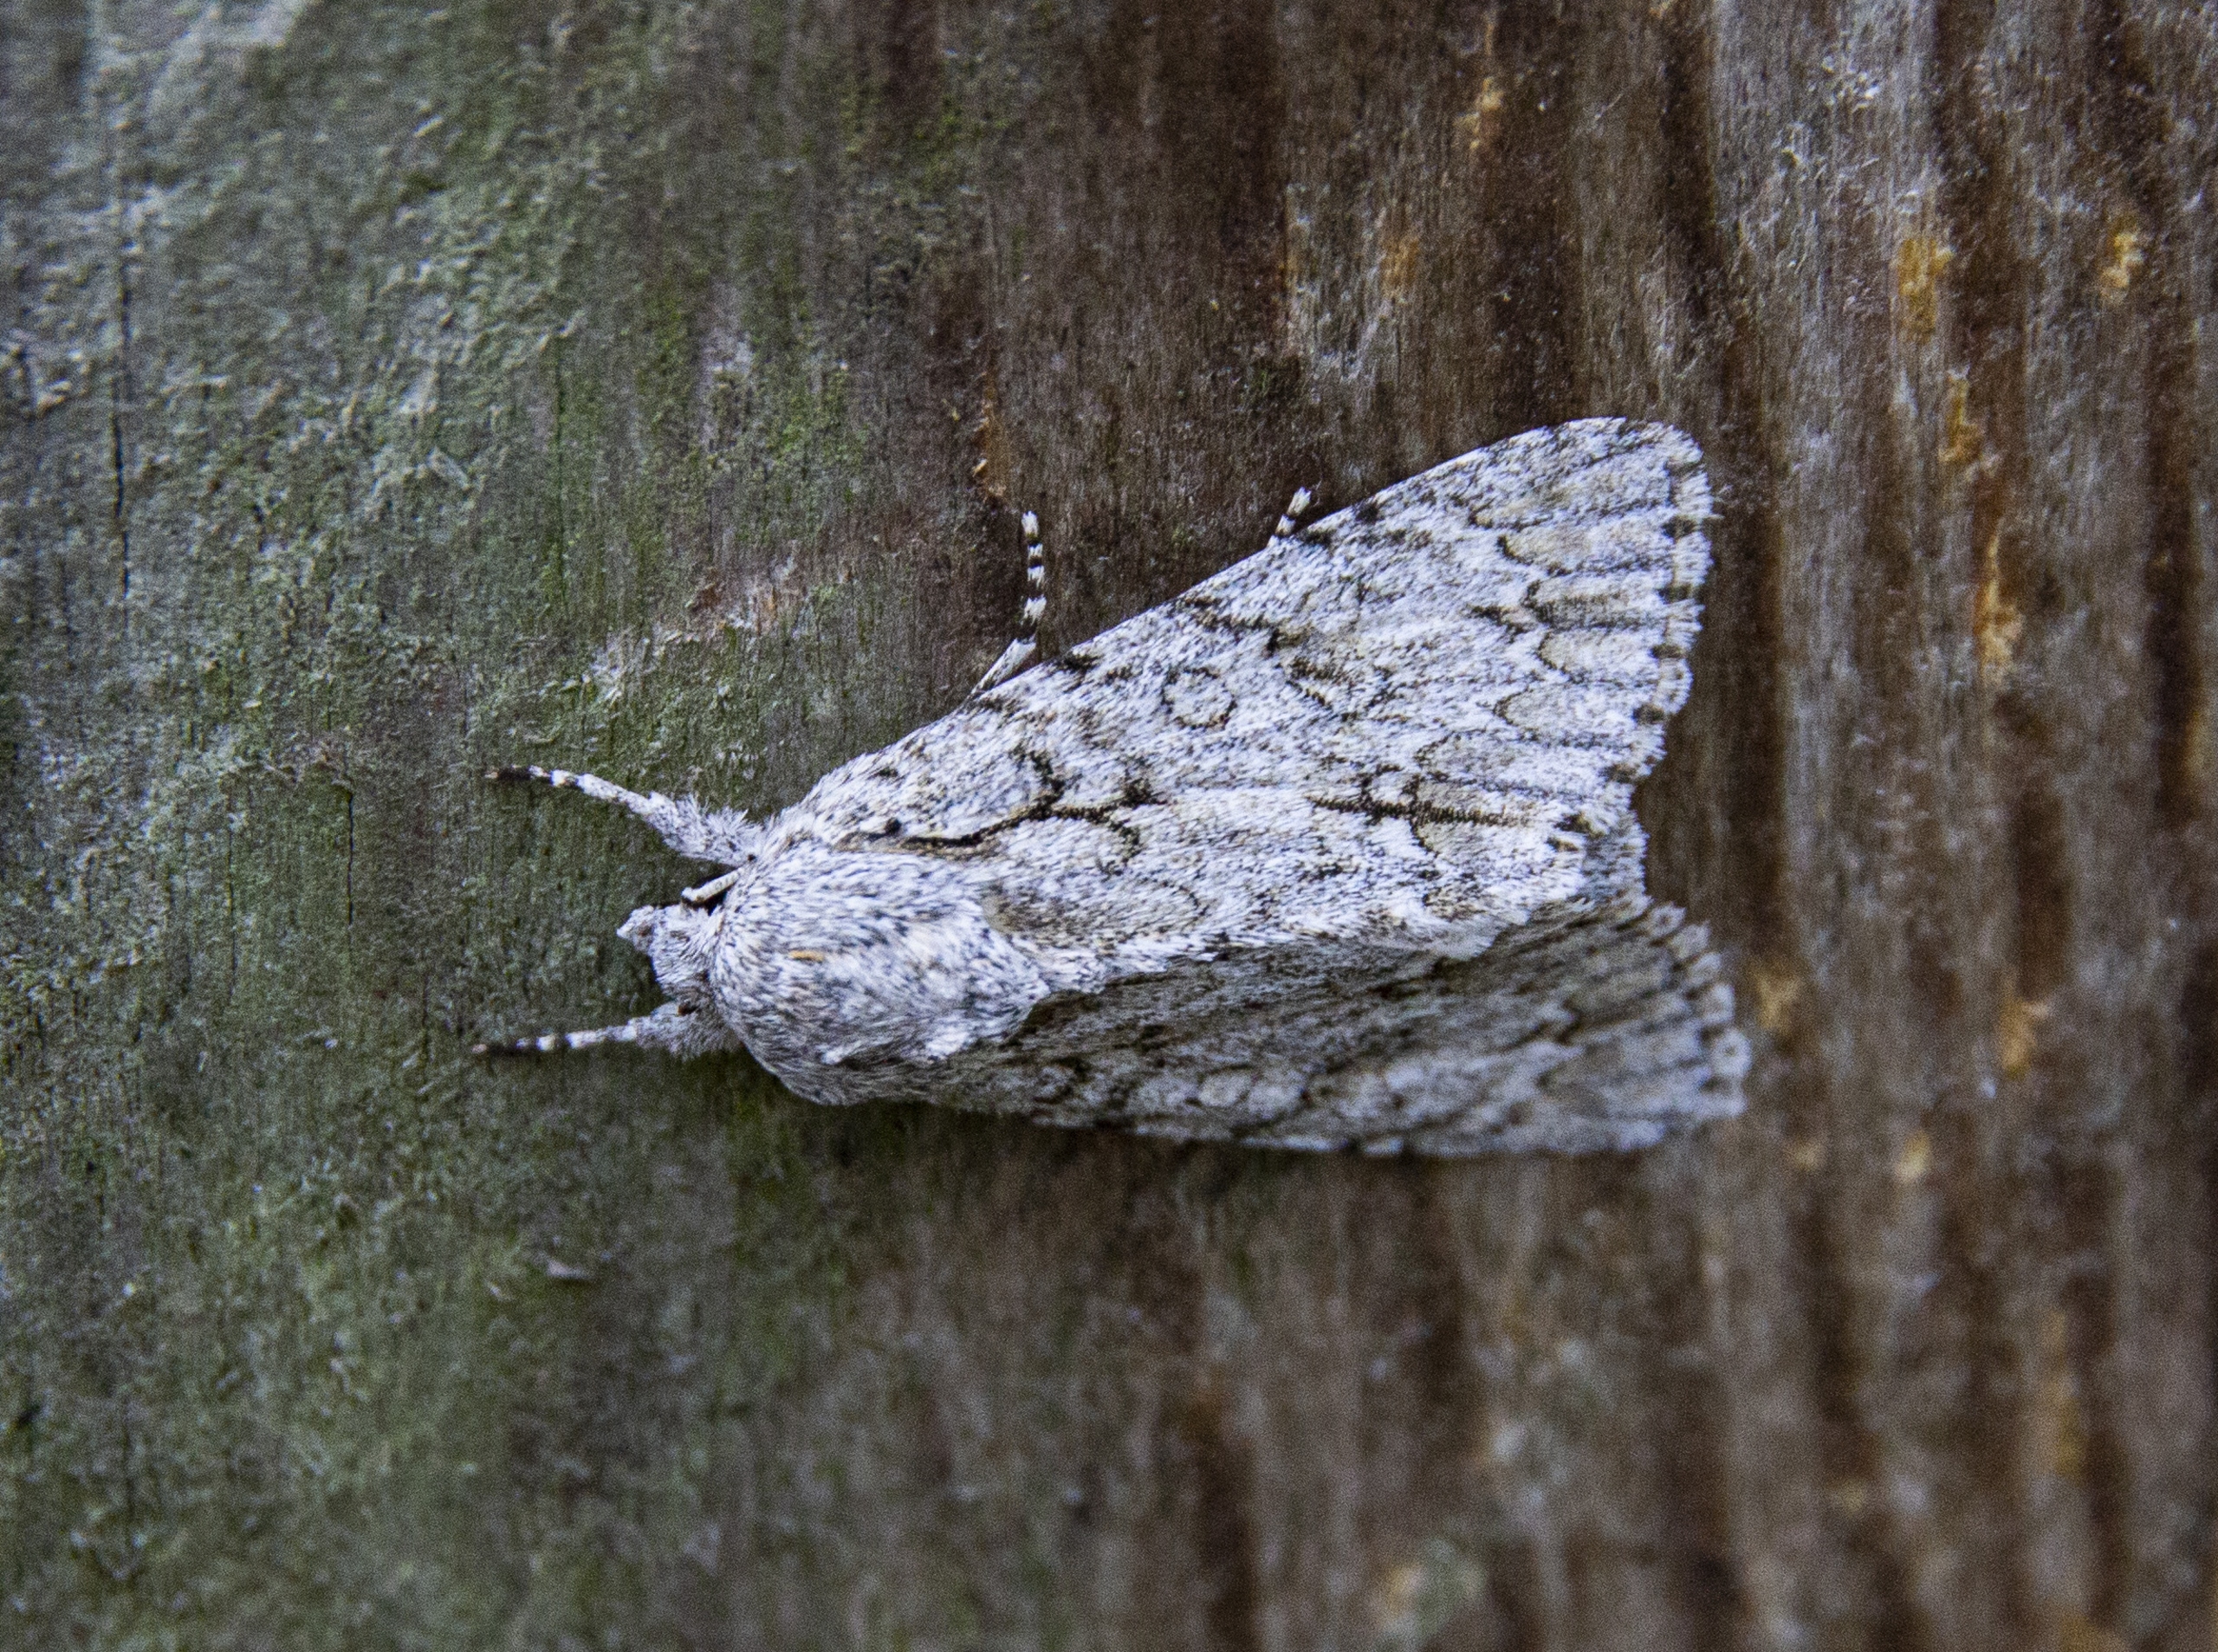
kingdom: Animalia
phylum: Arthropoda
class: Insecta
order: Lepidoptera
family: Noctuidae
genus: Acronicta
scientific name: Acronicta aceris
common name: Ahornugle
